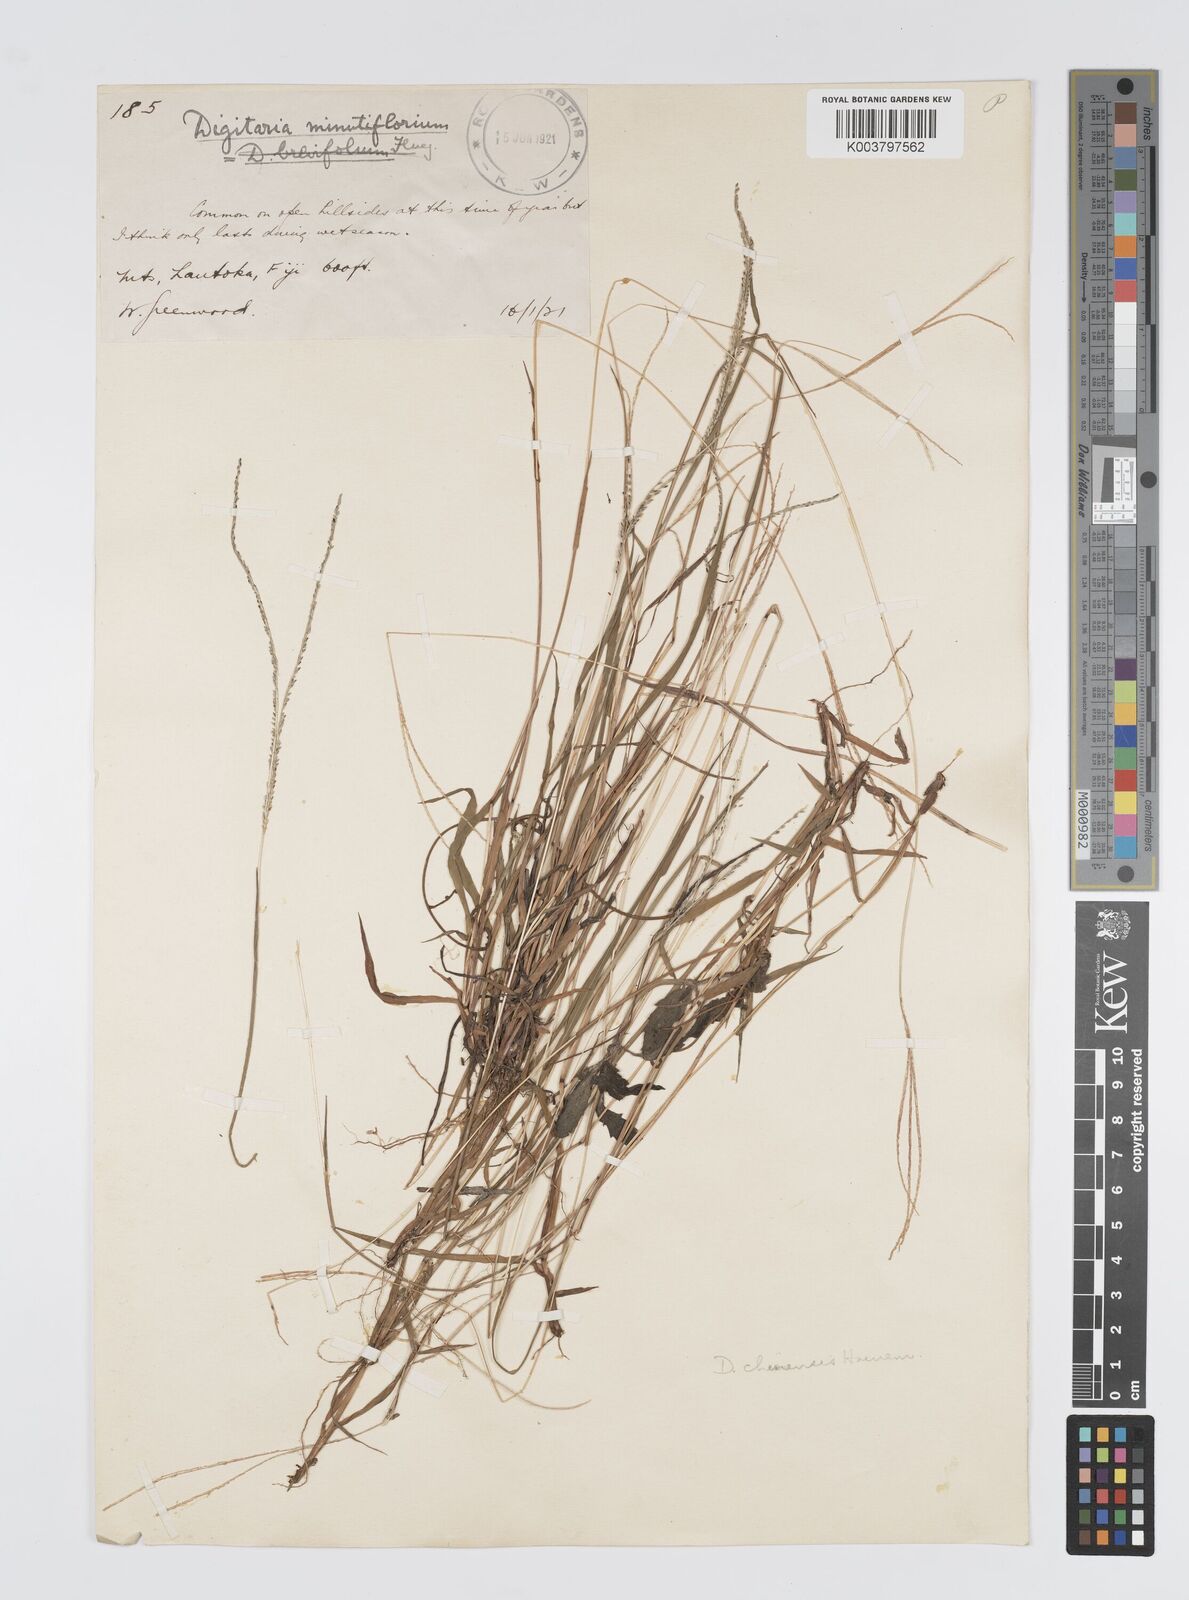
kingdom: Plantae
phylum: Tracheophyta
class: Liliopsida
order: Poales
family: Poaceae
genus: Digitaria
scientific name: Digitaria violascens
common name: Violet crabgrass
